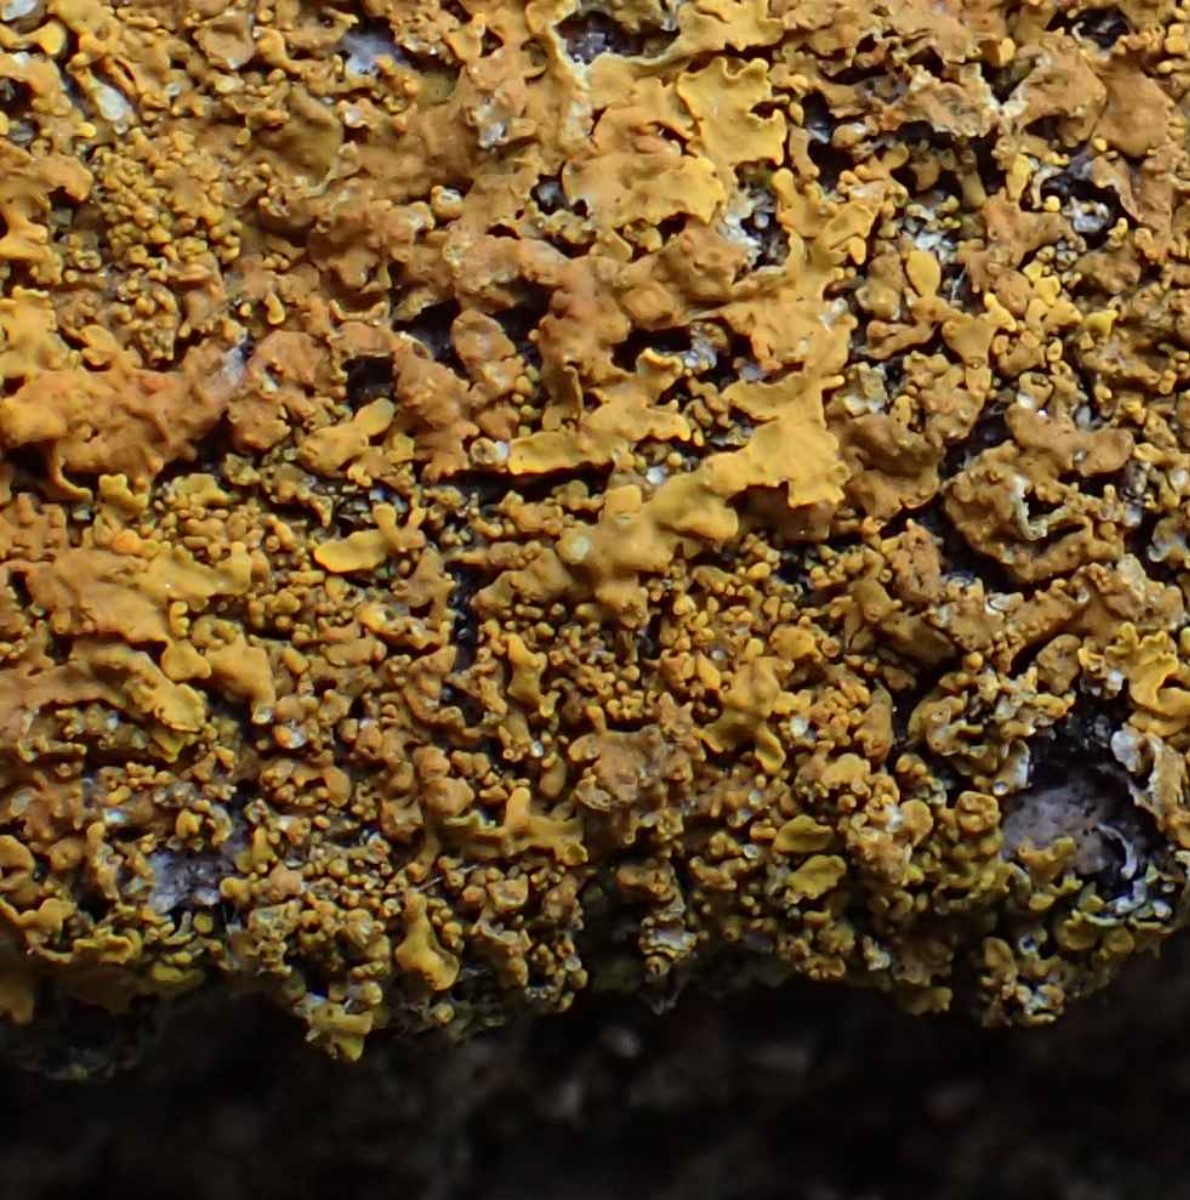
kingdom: Fungi
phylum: Ascomycota
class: Lecanoromycetes
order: Teloschistales
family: Teloschistaceae
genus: Xanthoria
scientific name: Xanthoria calcicola
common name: vortet væggelav
